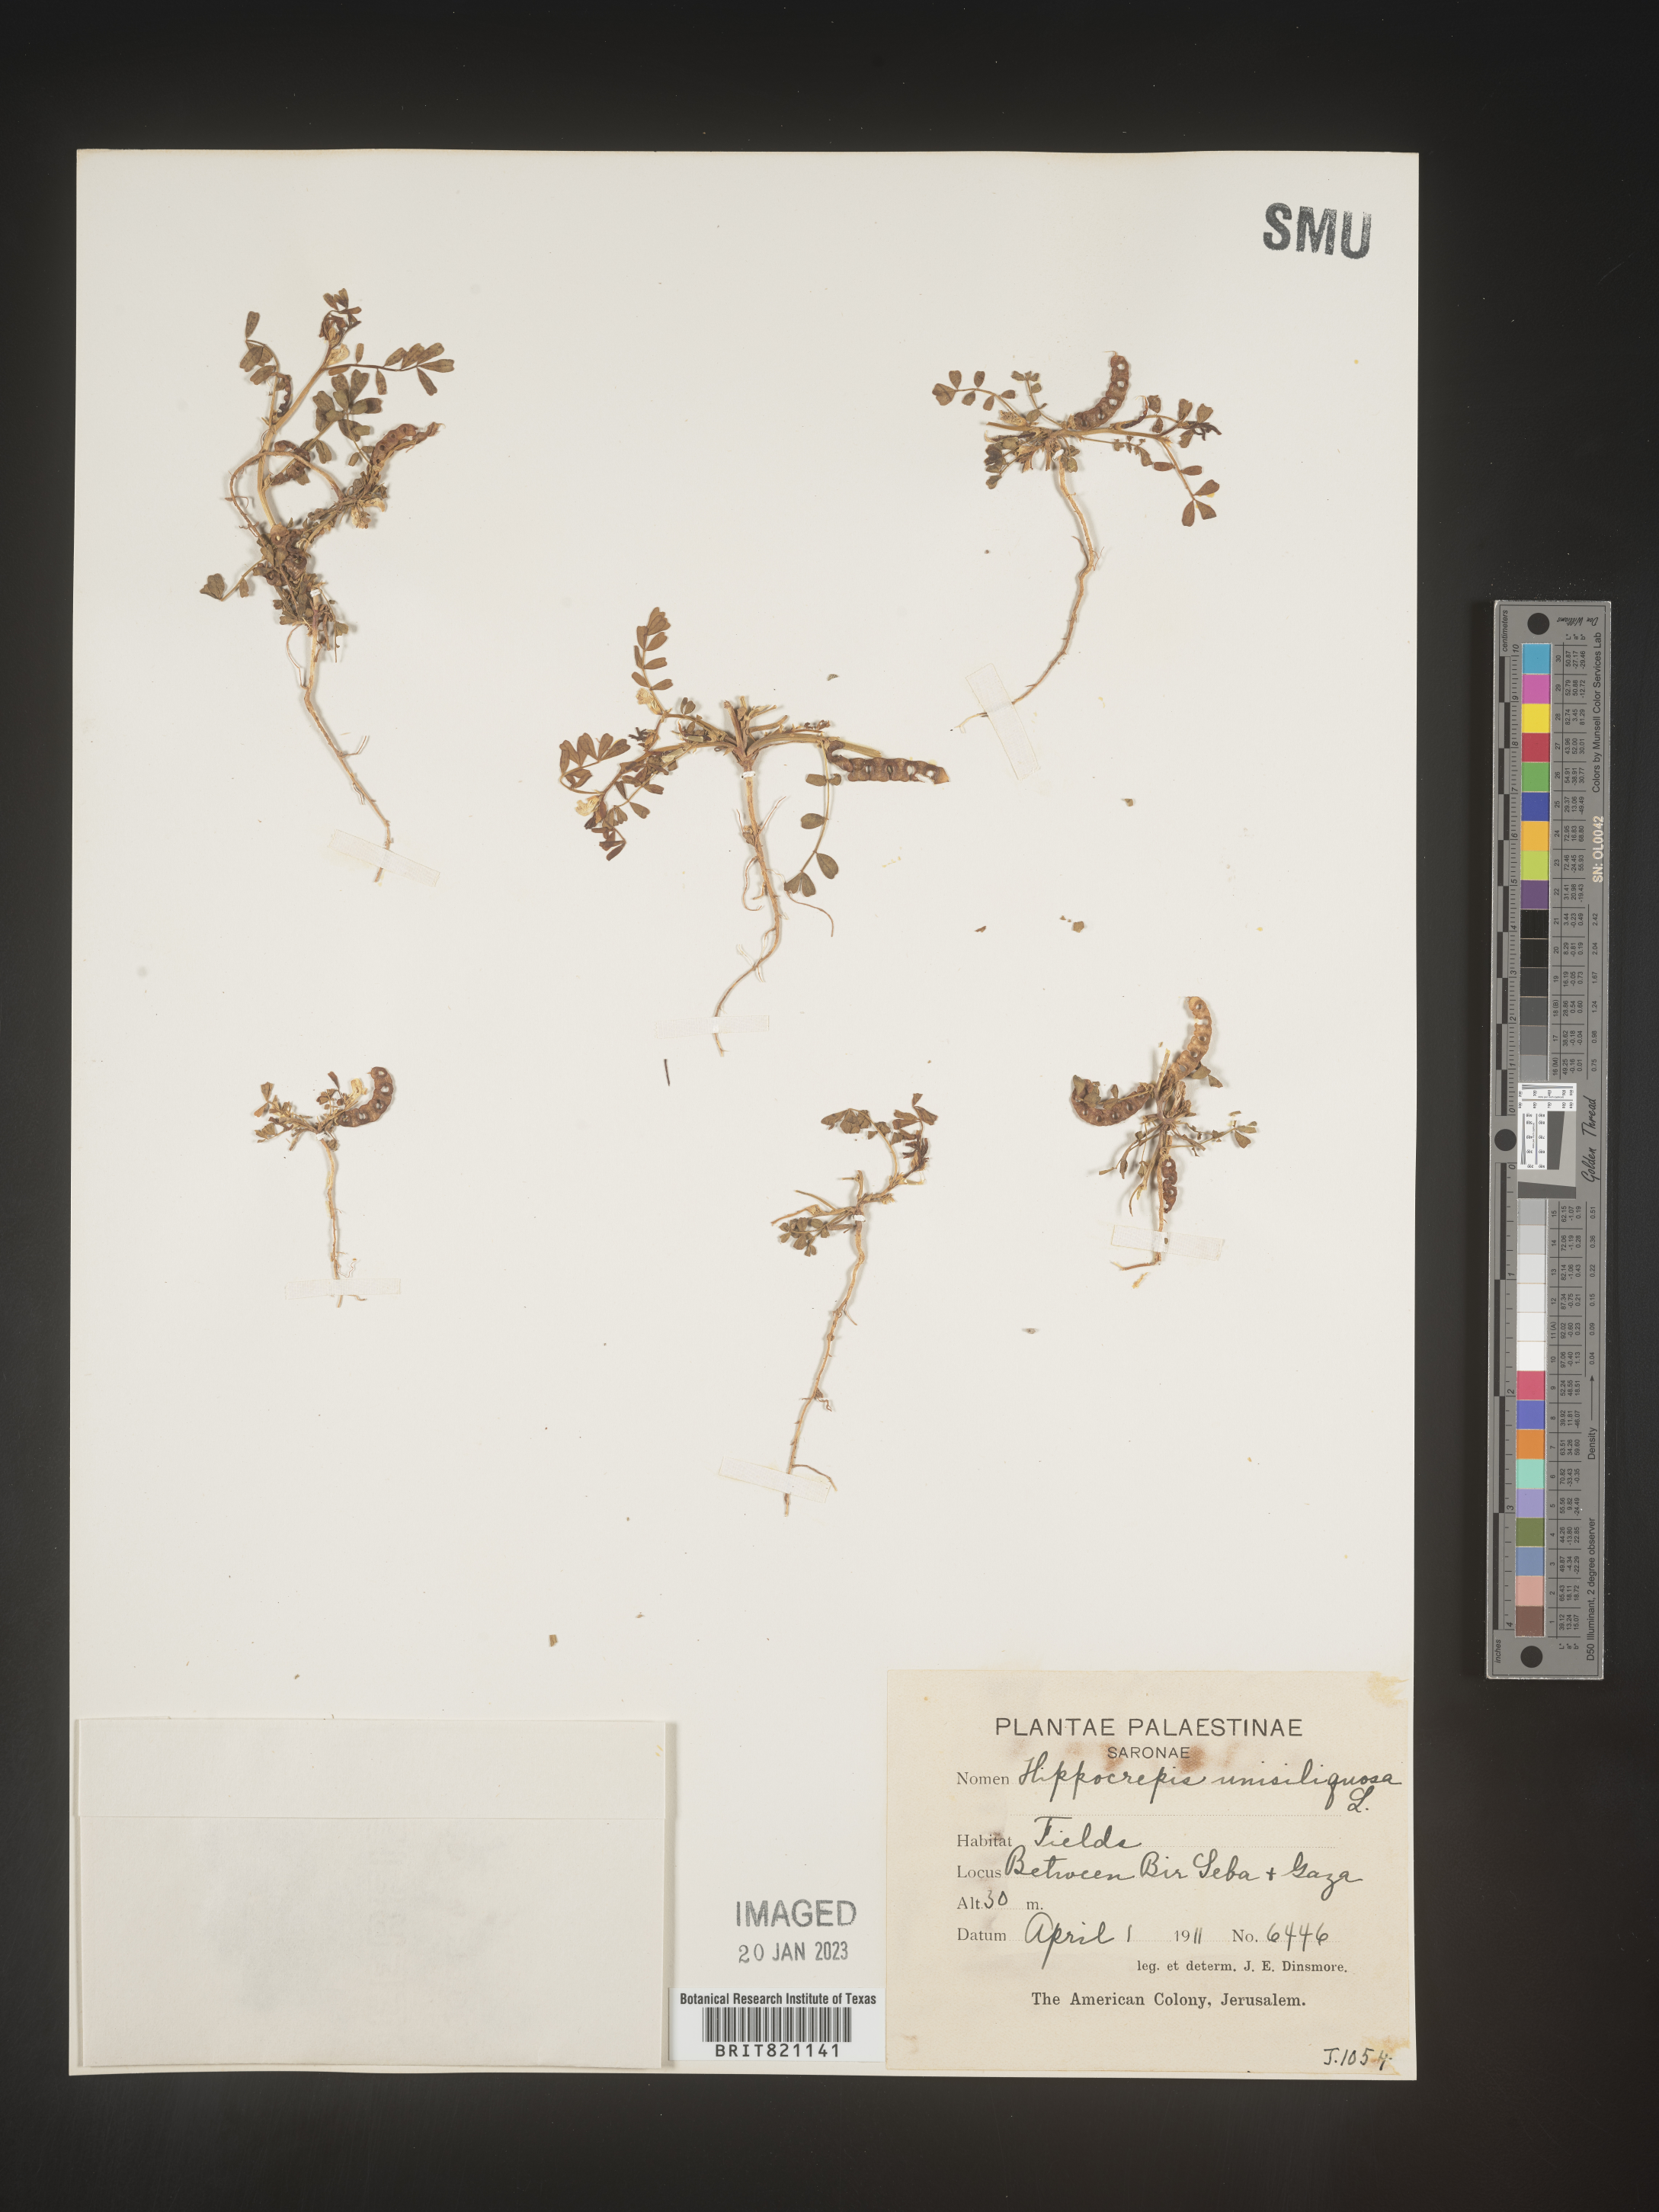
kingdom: Plantae
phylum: Tracheophyta
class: Magnoliopsida
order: Fabales
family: Fabaceae
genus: Hippocrepis
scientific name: Hippocrepis
